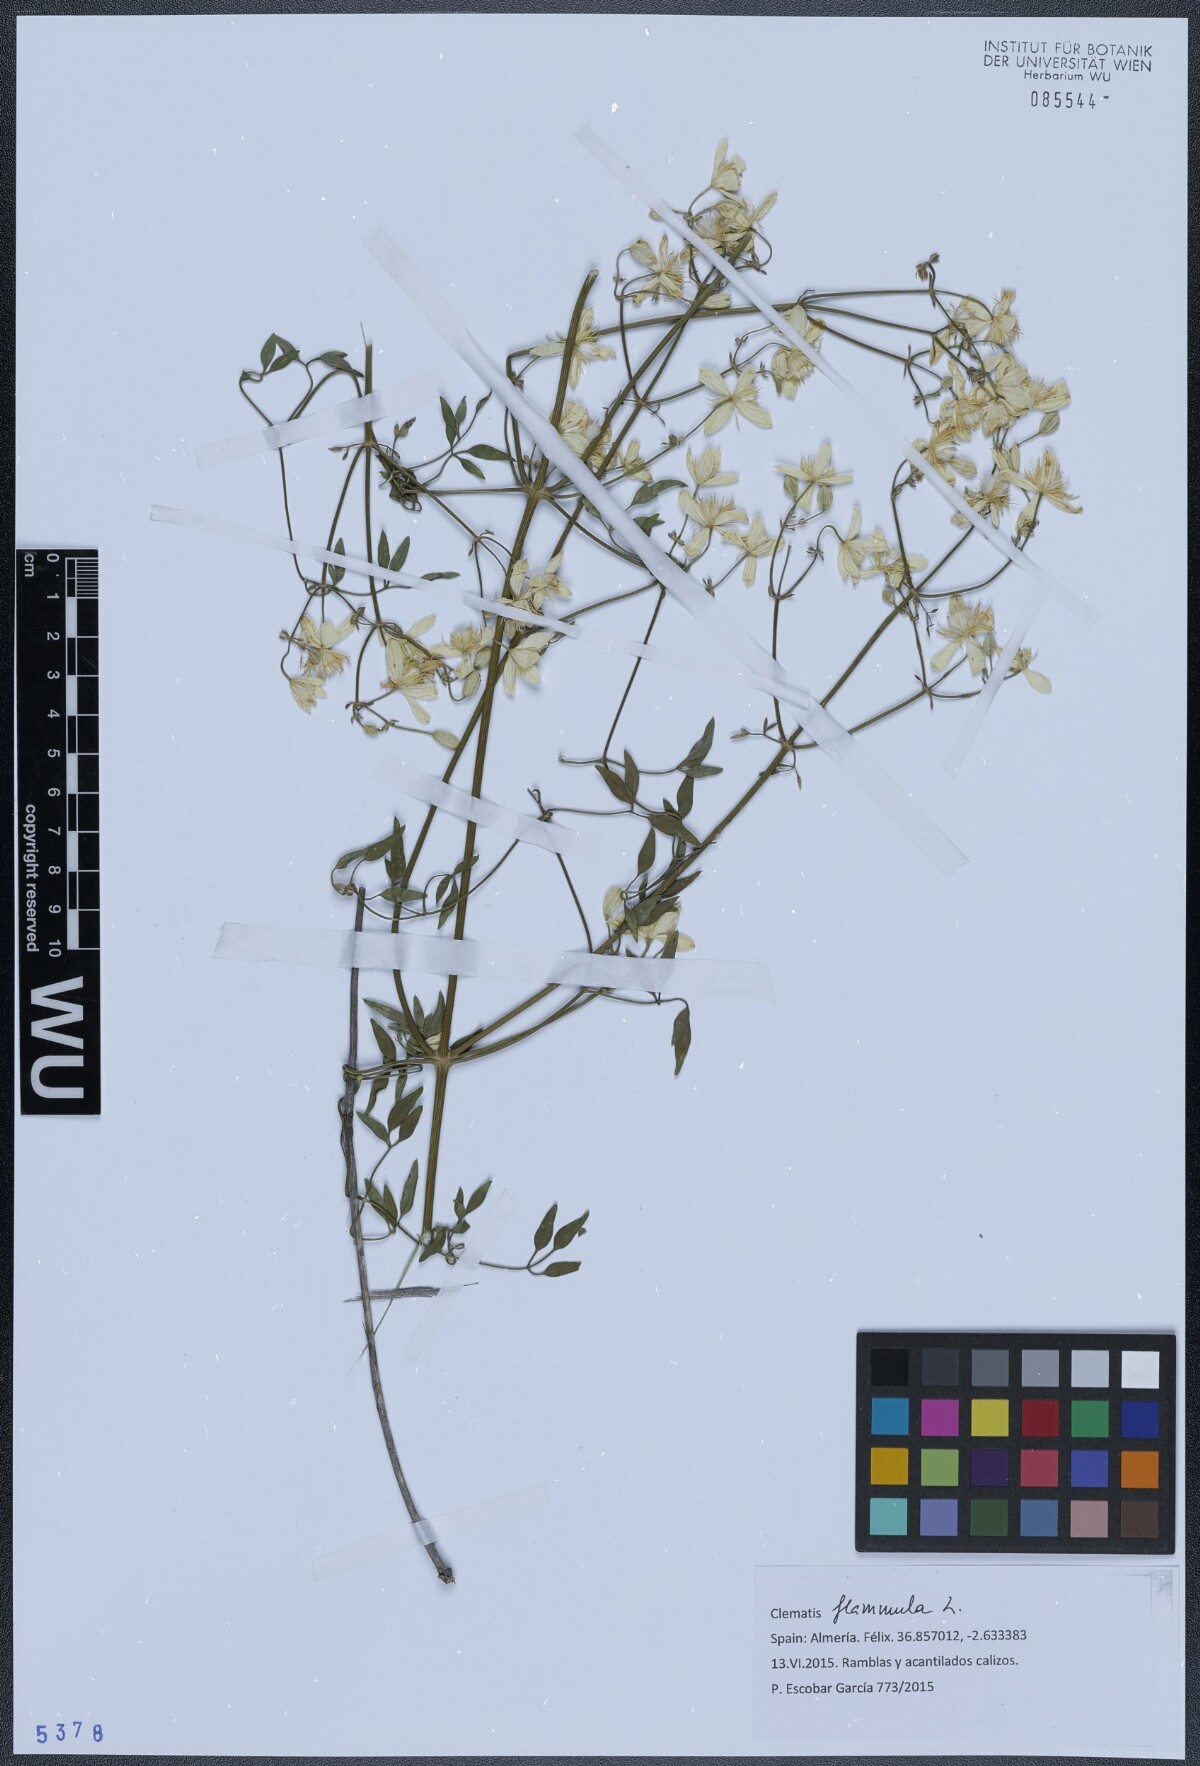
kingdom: Plantae
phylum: Tracheophyta
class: Magnoliopsida
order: Ranunculales
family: Ranunculaceae
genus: Clematis
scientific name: Clematis flammula
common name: Virgin's-bower
